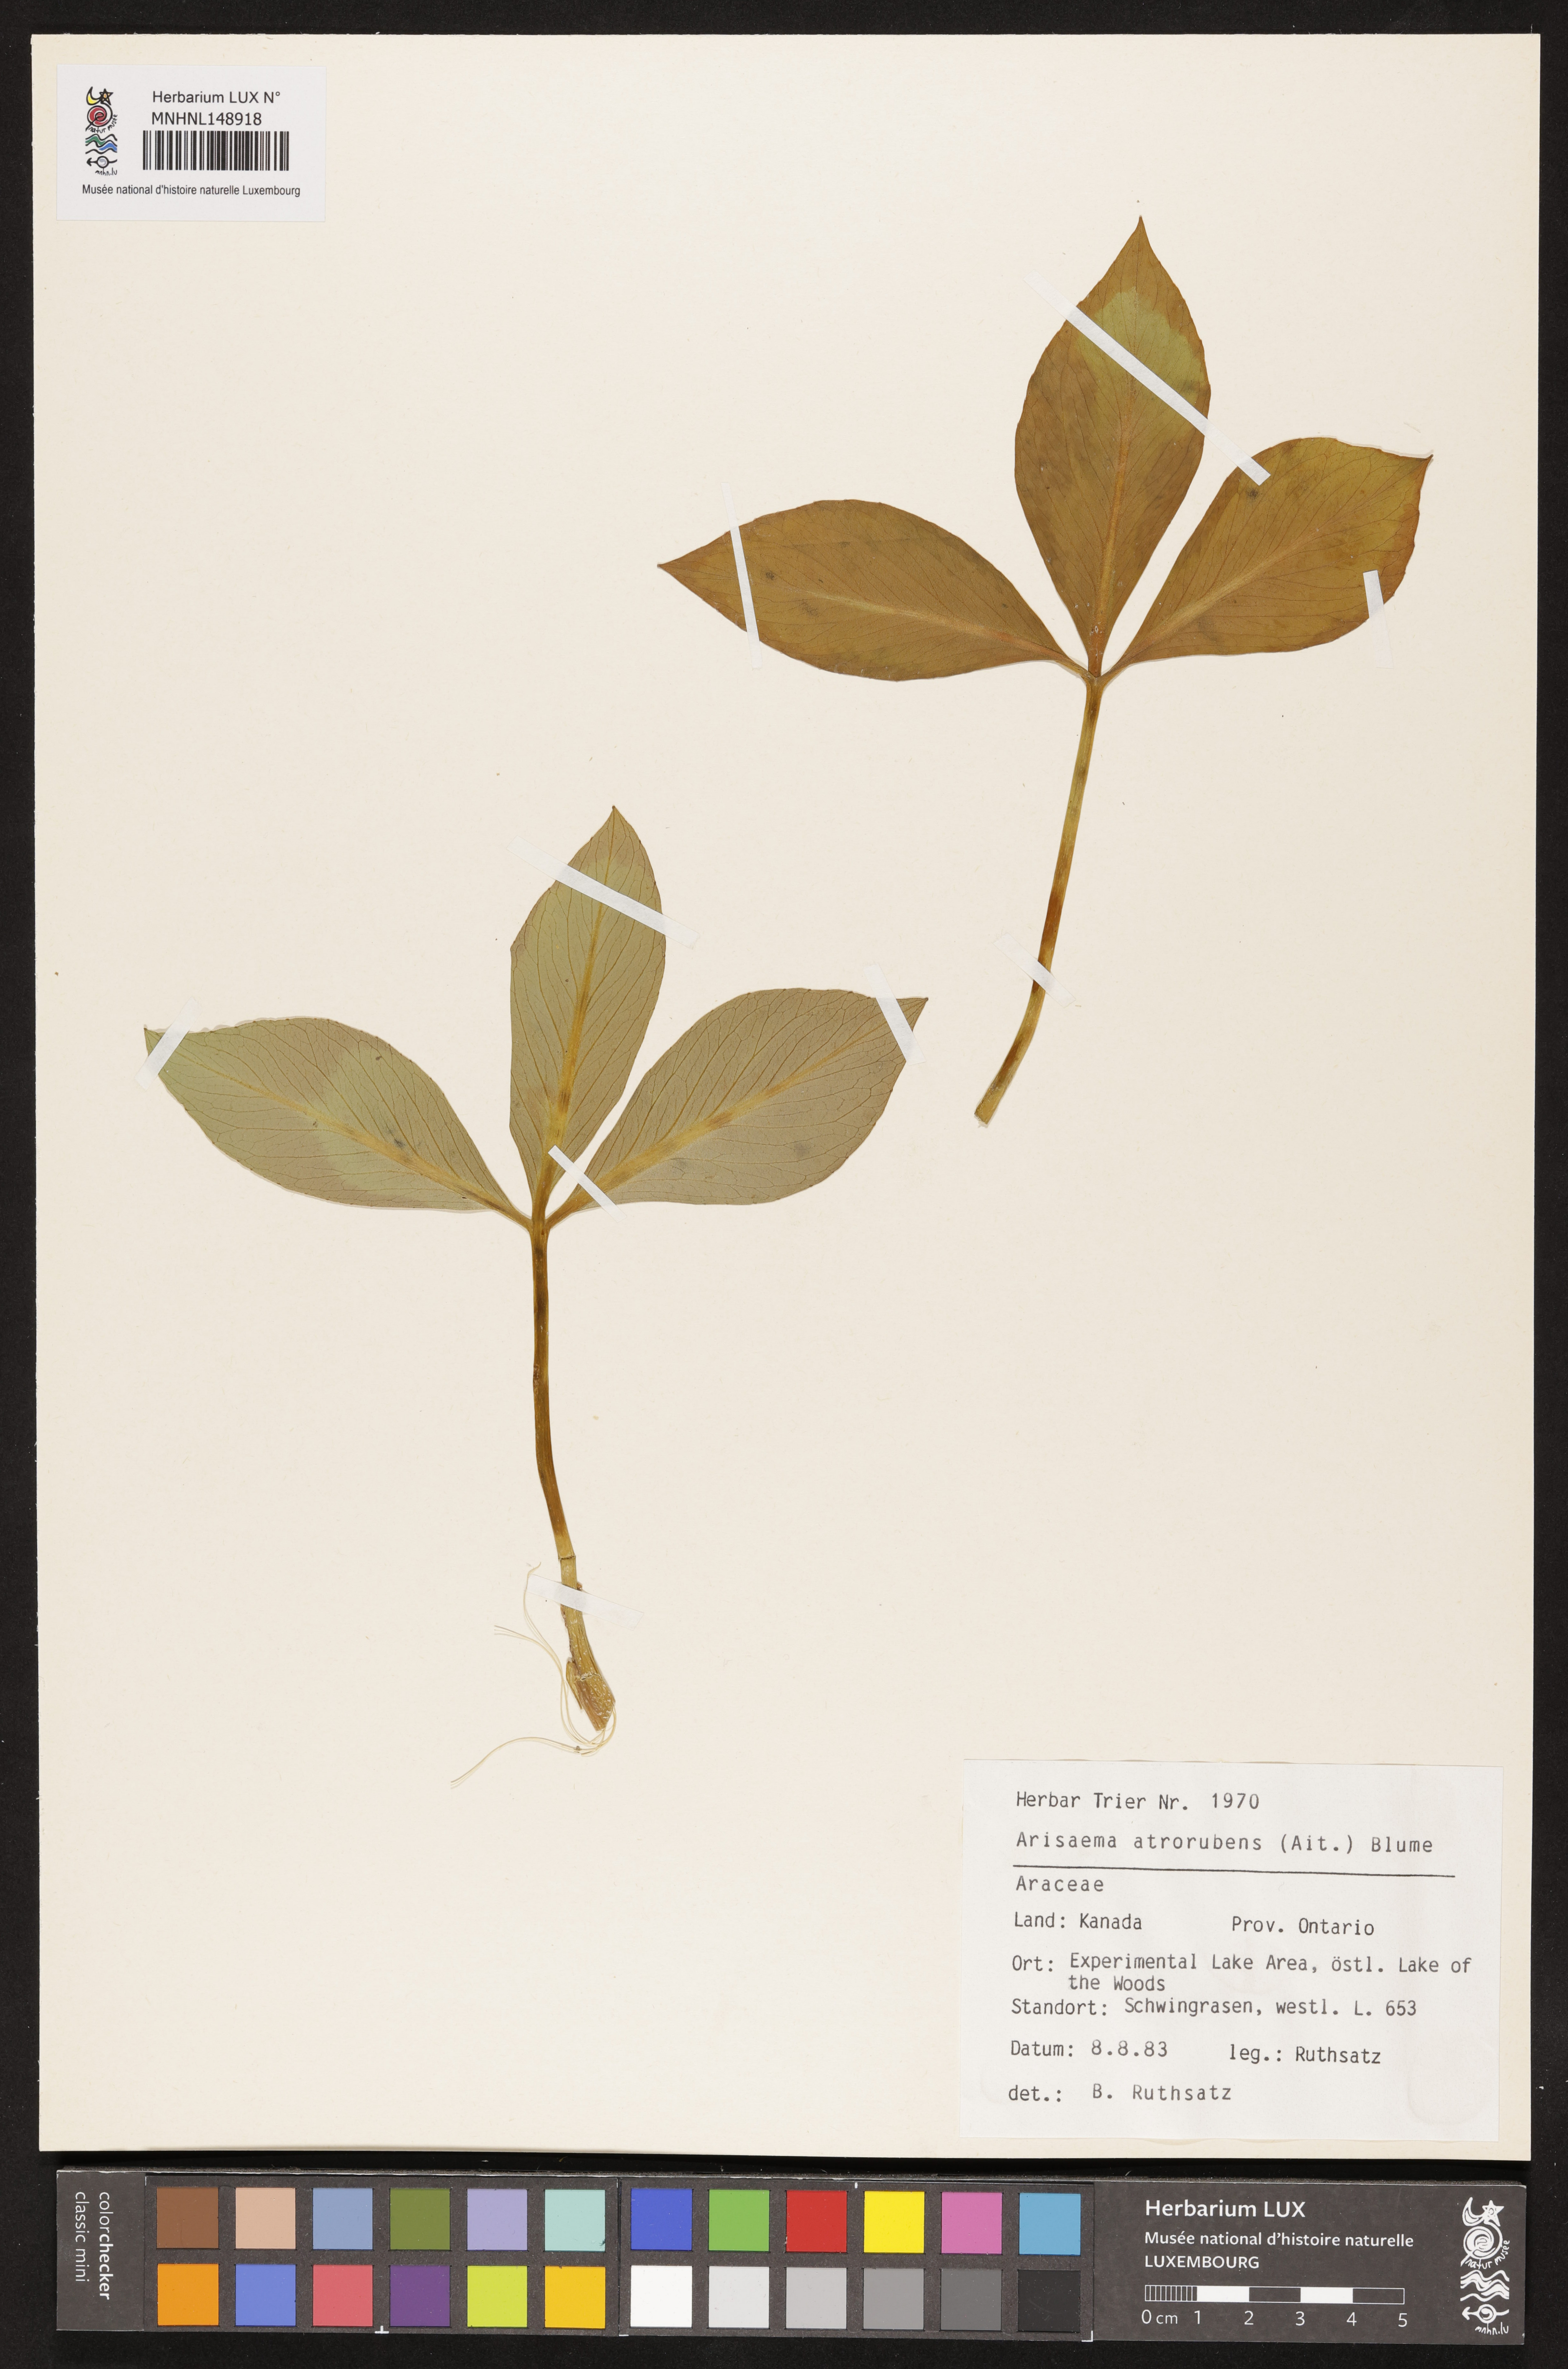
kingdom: Plantae
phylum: Tracheophyta
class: Liliopsida
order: Alismatales
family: Araceae
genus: Arisaema
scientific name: Arisaema triphyllum
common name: Jack-in-the-pulpit
